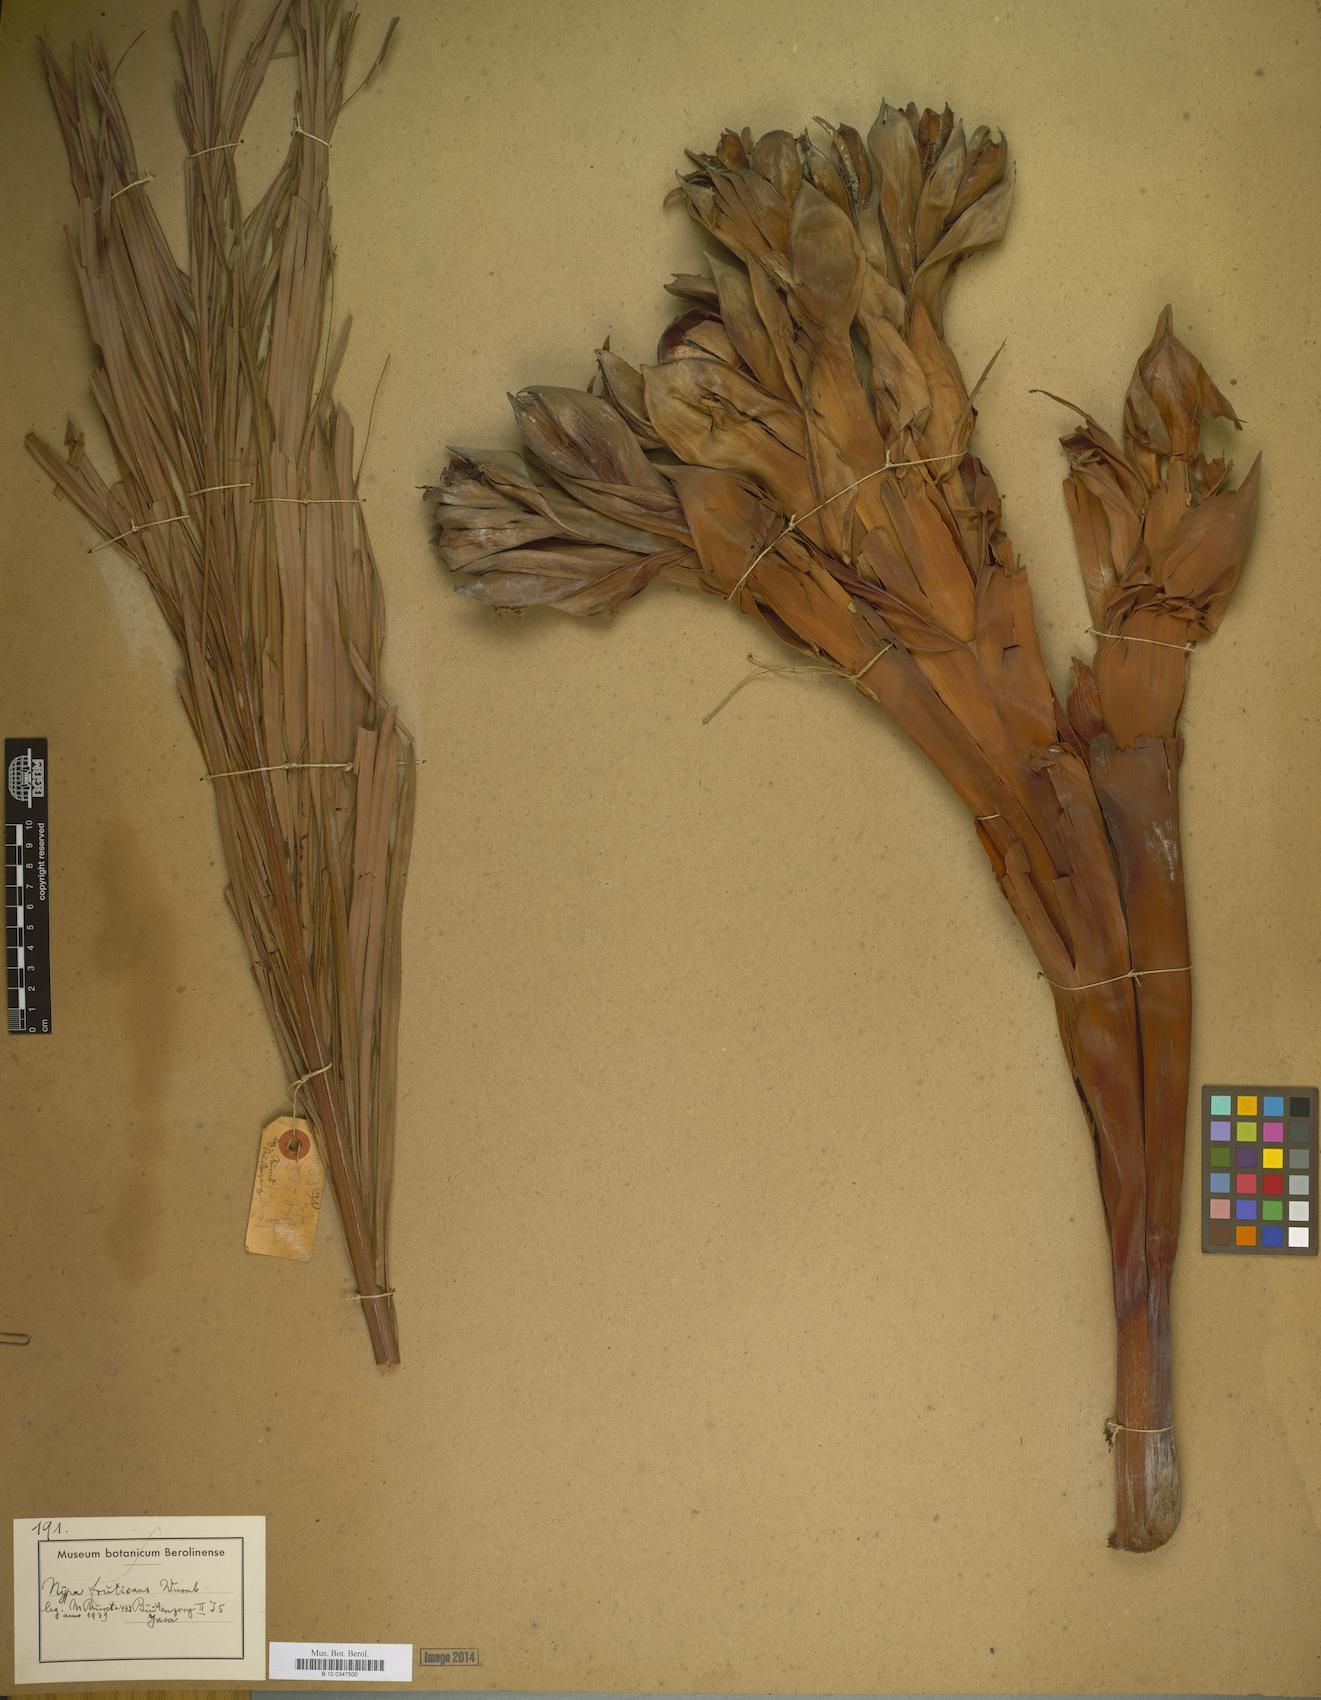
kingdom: Plantae
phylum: Tracheophyta
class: Liliopsida
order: Arecales
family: Arecaceae
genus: Nypa
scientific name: Nypa fruticans
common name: Mangrove palm
